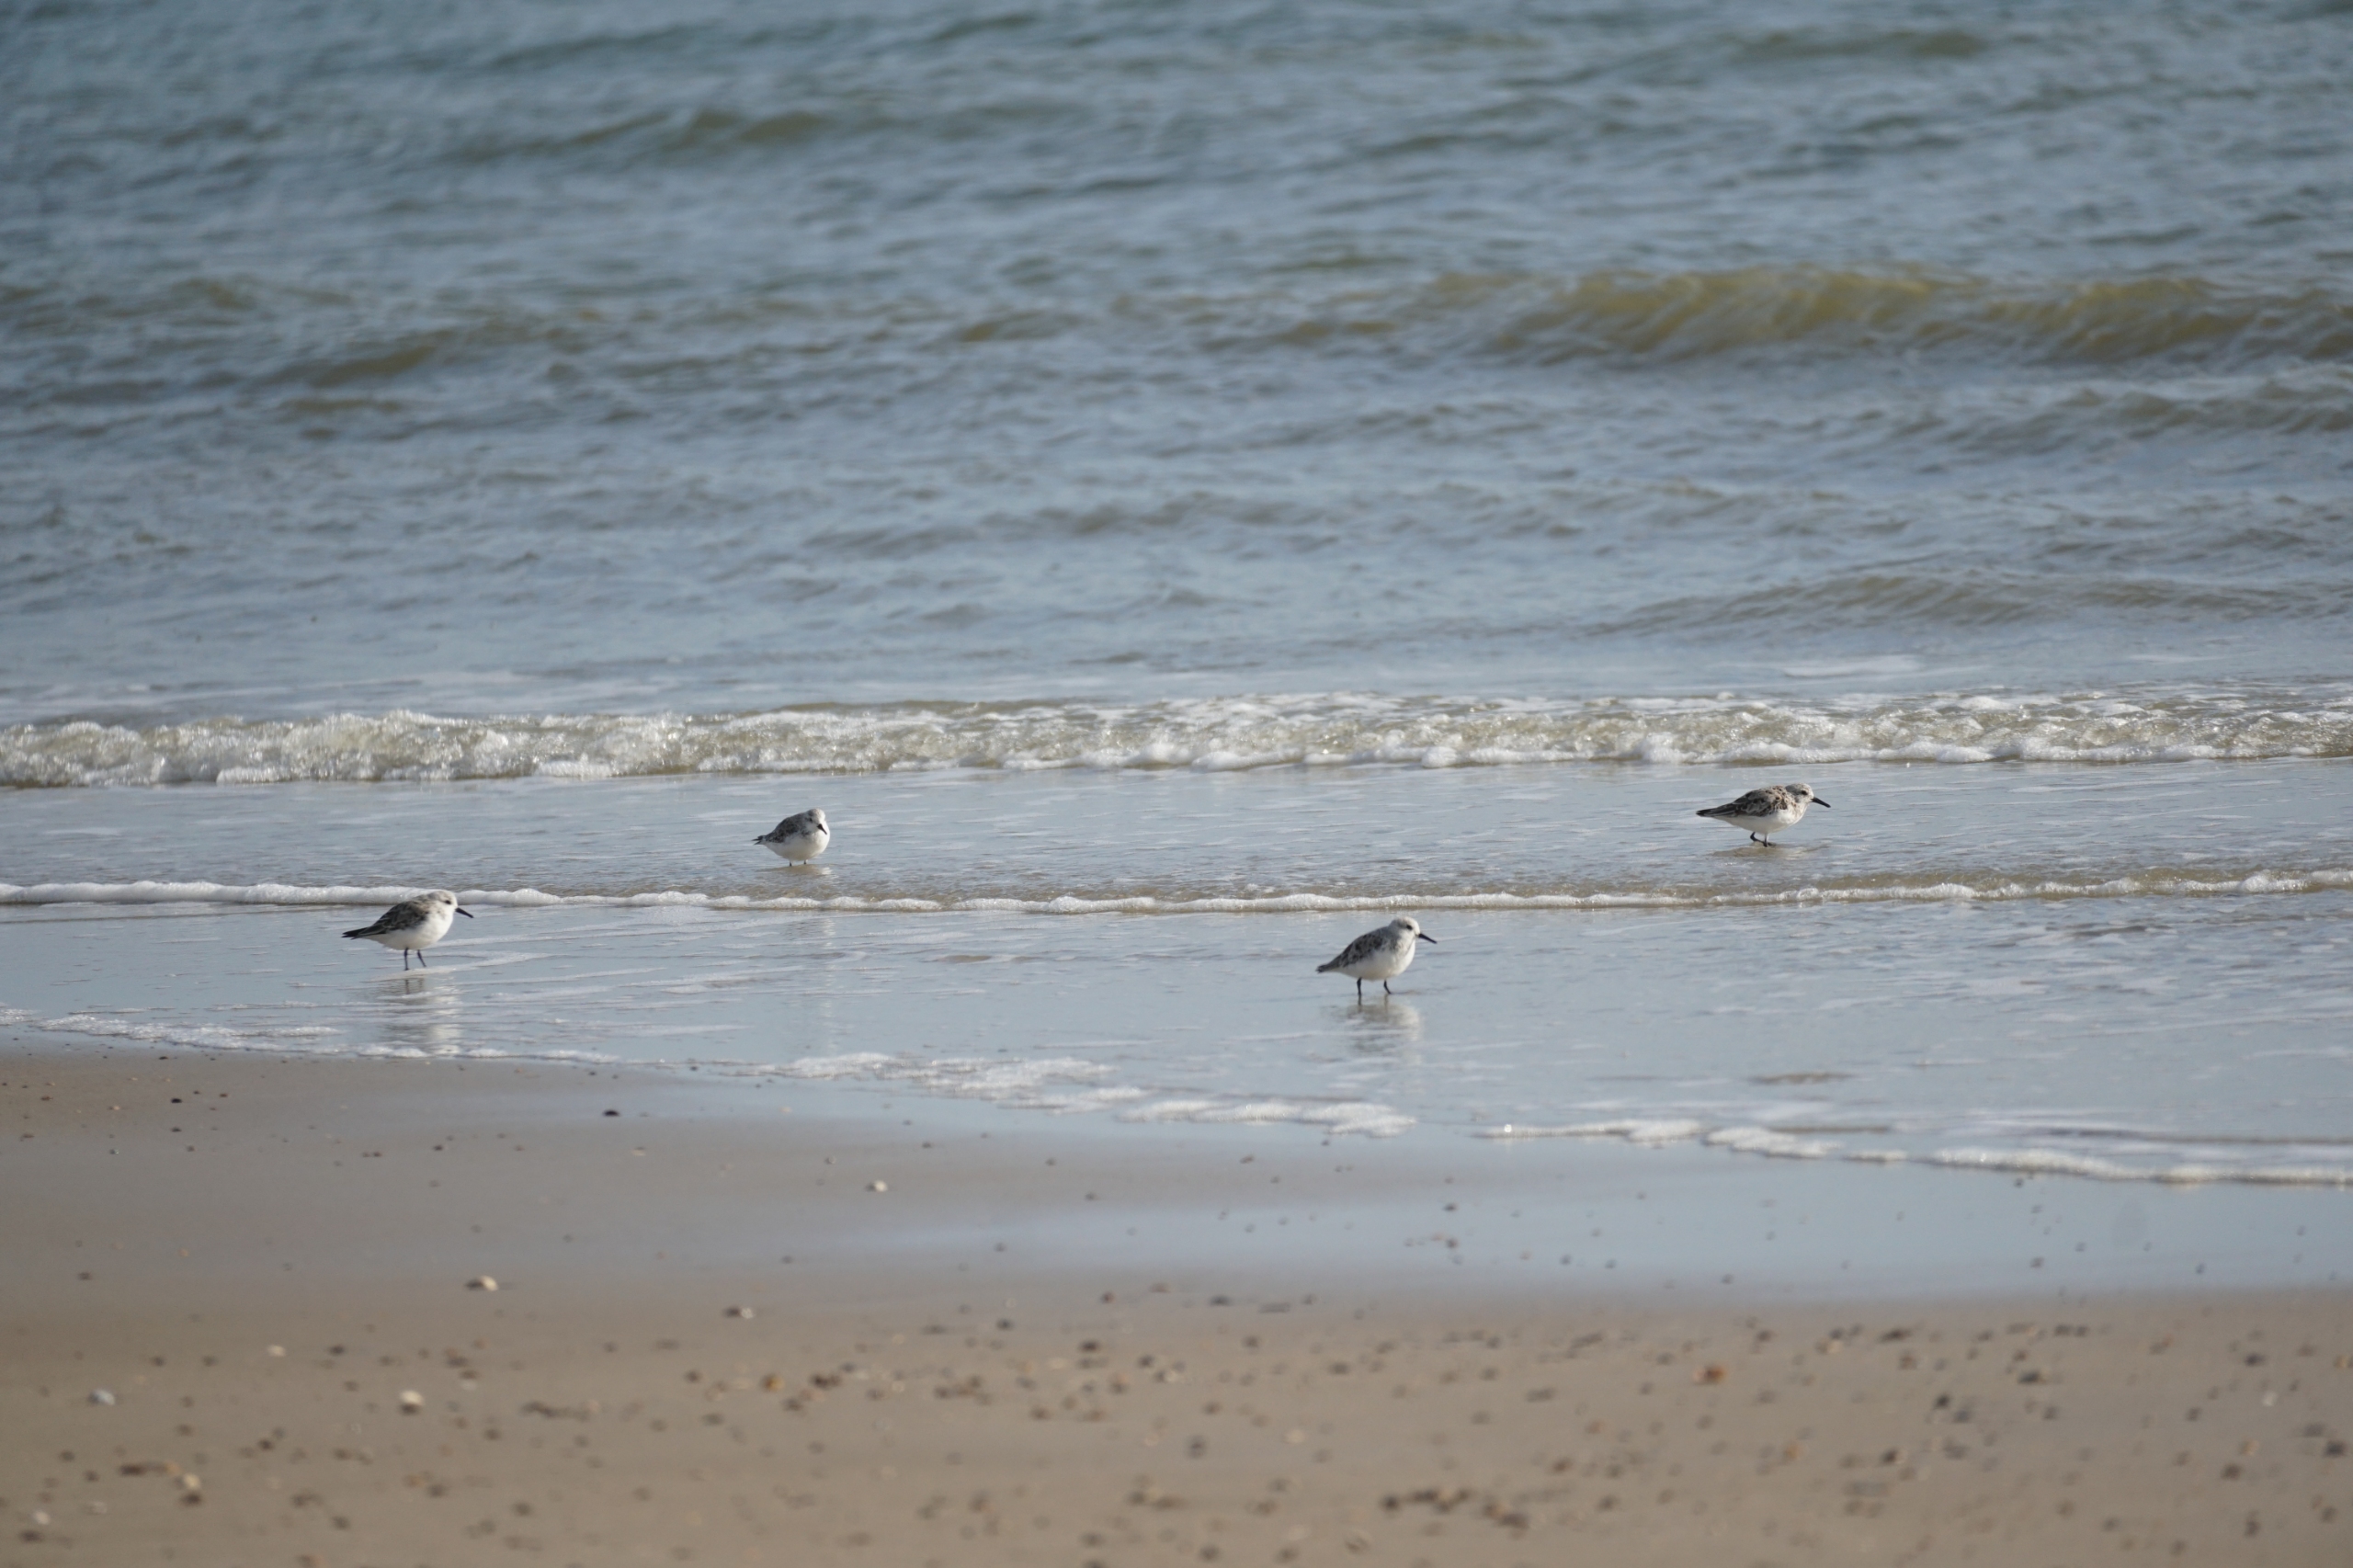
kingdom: Animalia
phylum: Chordata
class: Aves
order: Charadriiformes
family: Scolopacidae
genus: Calidris
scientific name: Calidris alba
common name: Sandløber
